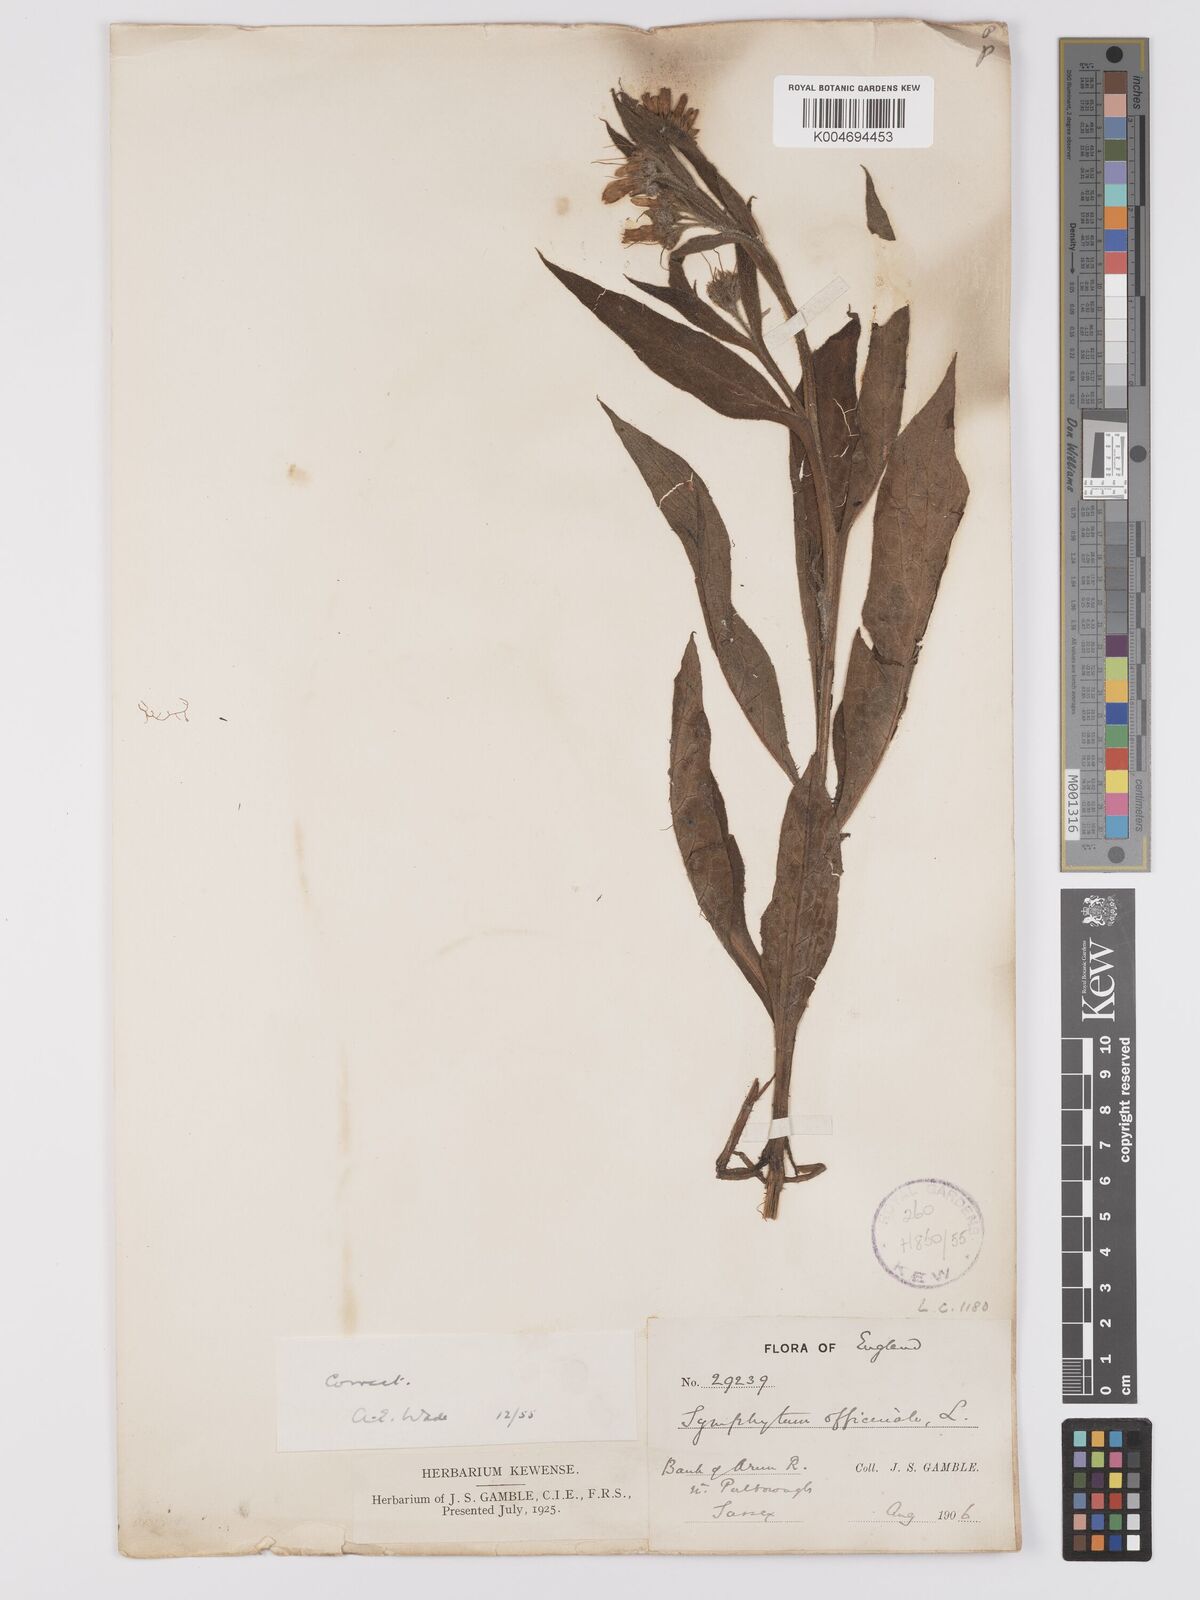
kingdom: Plantae
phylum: Tracheophyta
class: Magnoliopsida
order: Boraginales
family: Boraginaceae
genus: Symphytum
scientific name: Symphytum officinale
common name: Common comfrey
